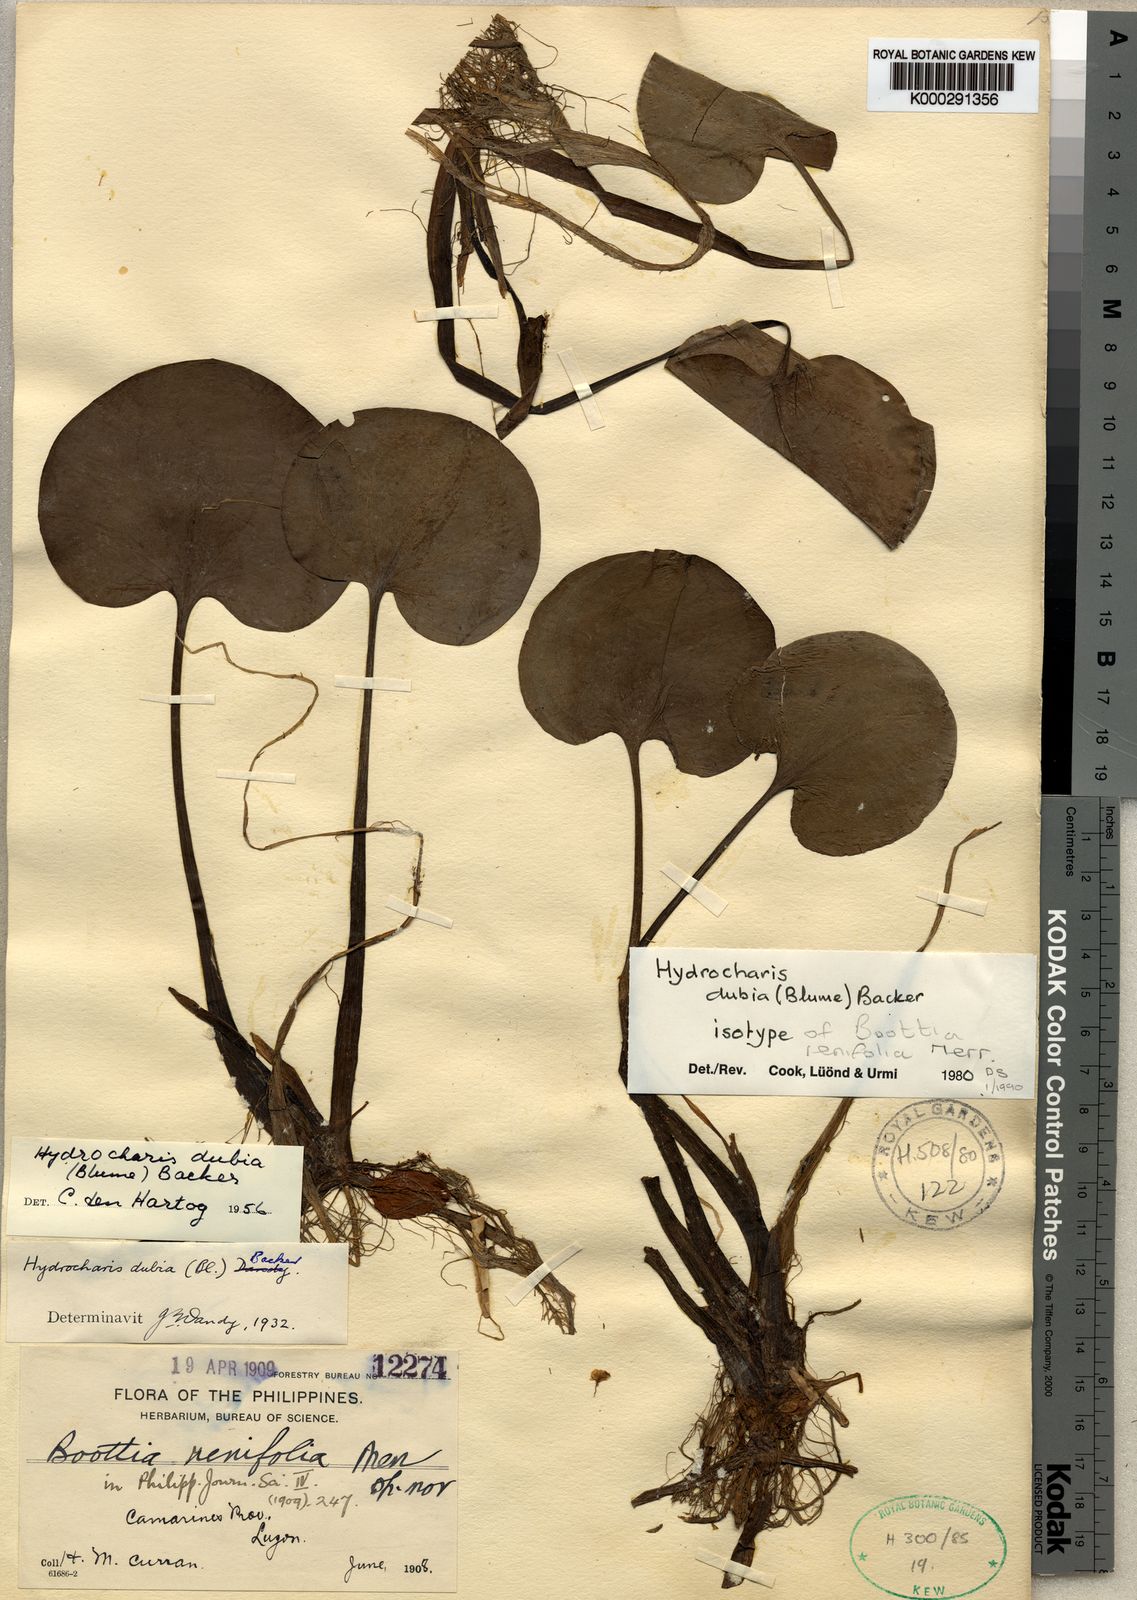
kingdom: Plantae
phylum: Tracheophyta
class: Liliopsida
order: Alismatales
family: Hydrocharitaceae
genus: Hydrocharis
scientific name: Hydrocharis dubia
